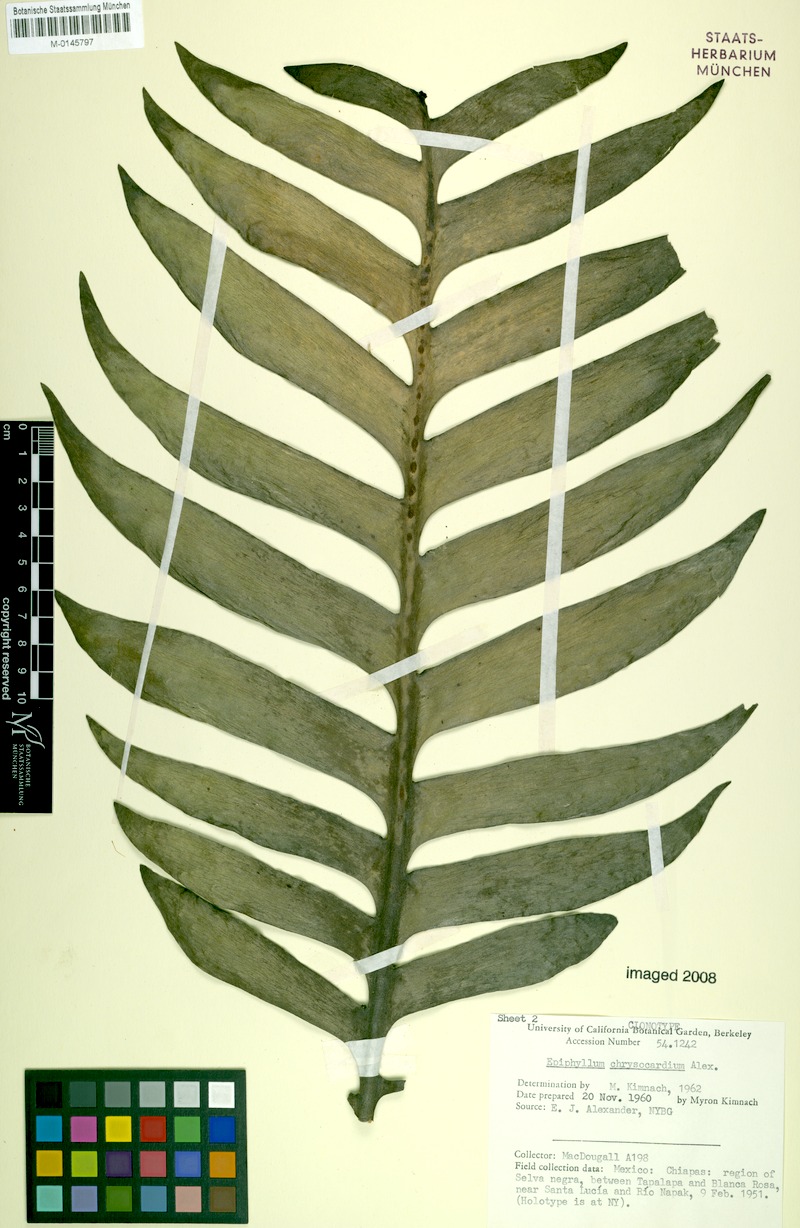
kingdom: Plantae
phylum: Tracheophyta
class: Magnoliopsida
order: Caryophyllales
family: Cactaceae
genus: Epiphyllum
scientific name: Epiphyllum chrysocardium
